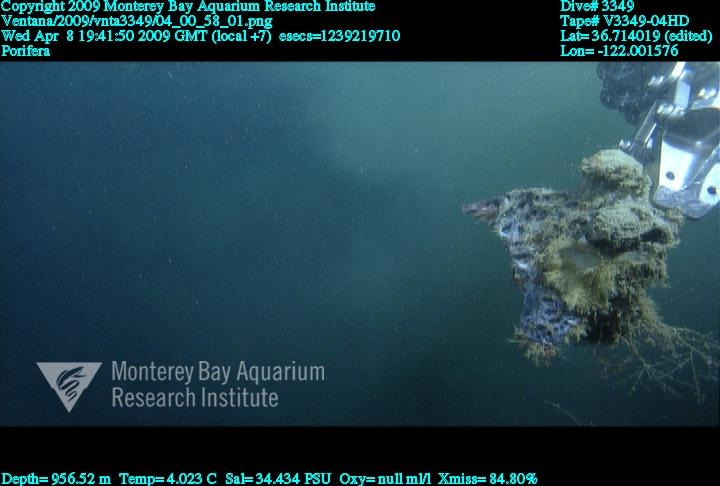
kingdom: Animalia
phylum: Porifera
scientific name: Porifera
